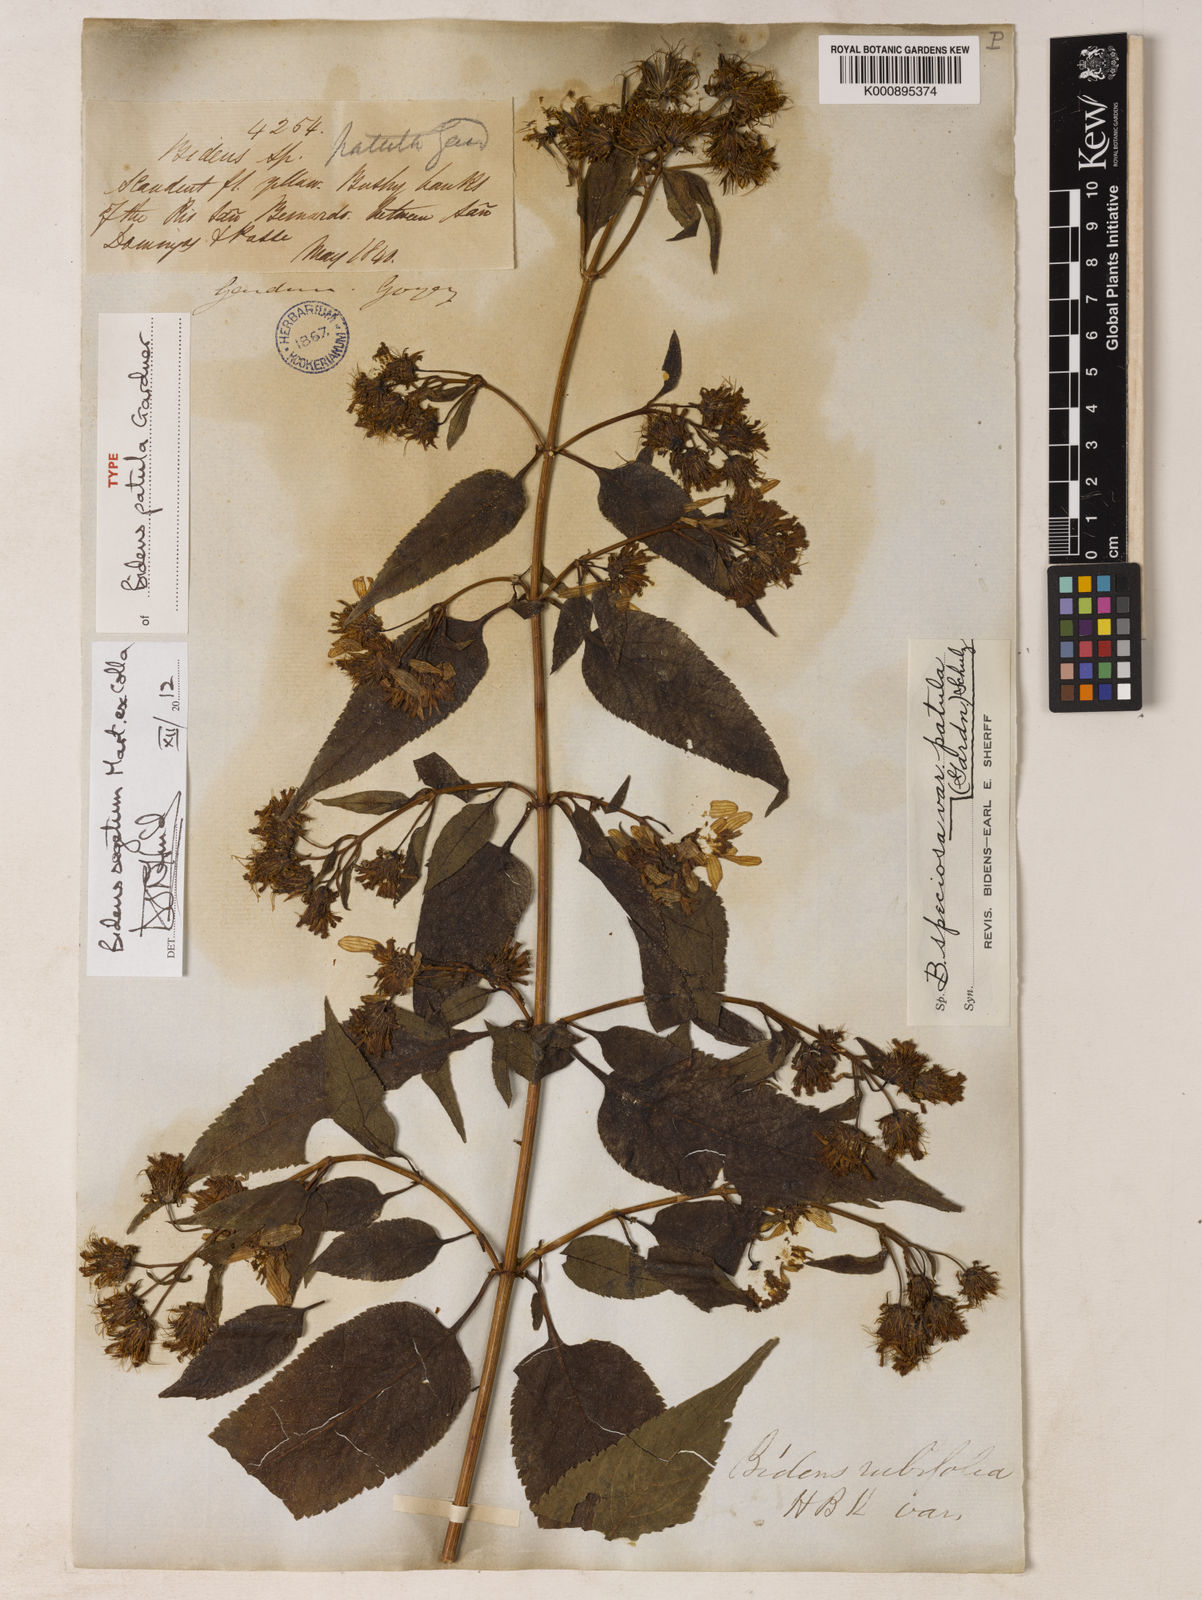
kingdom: Plantae
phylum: Tracheophyta
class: Magnoliopsida
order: Asterales
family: Asteraceae
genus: Bidens
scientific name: Bidens segetum
